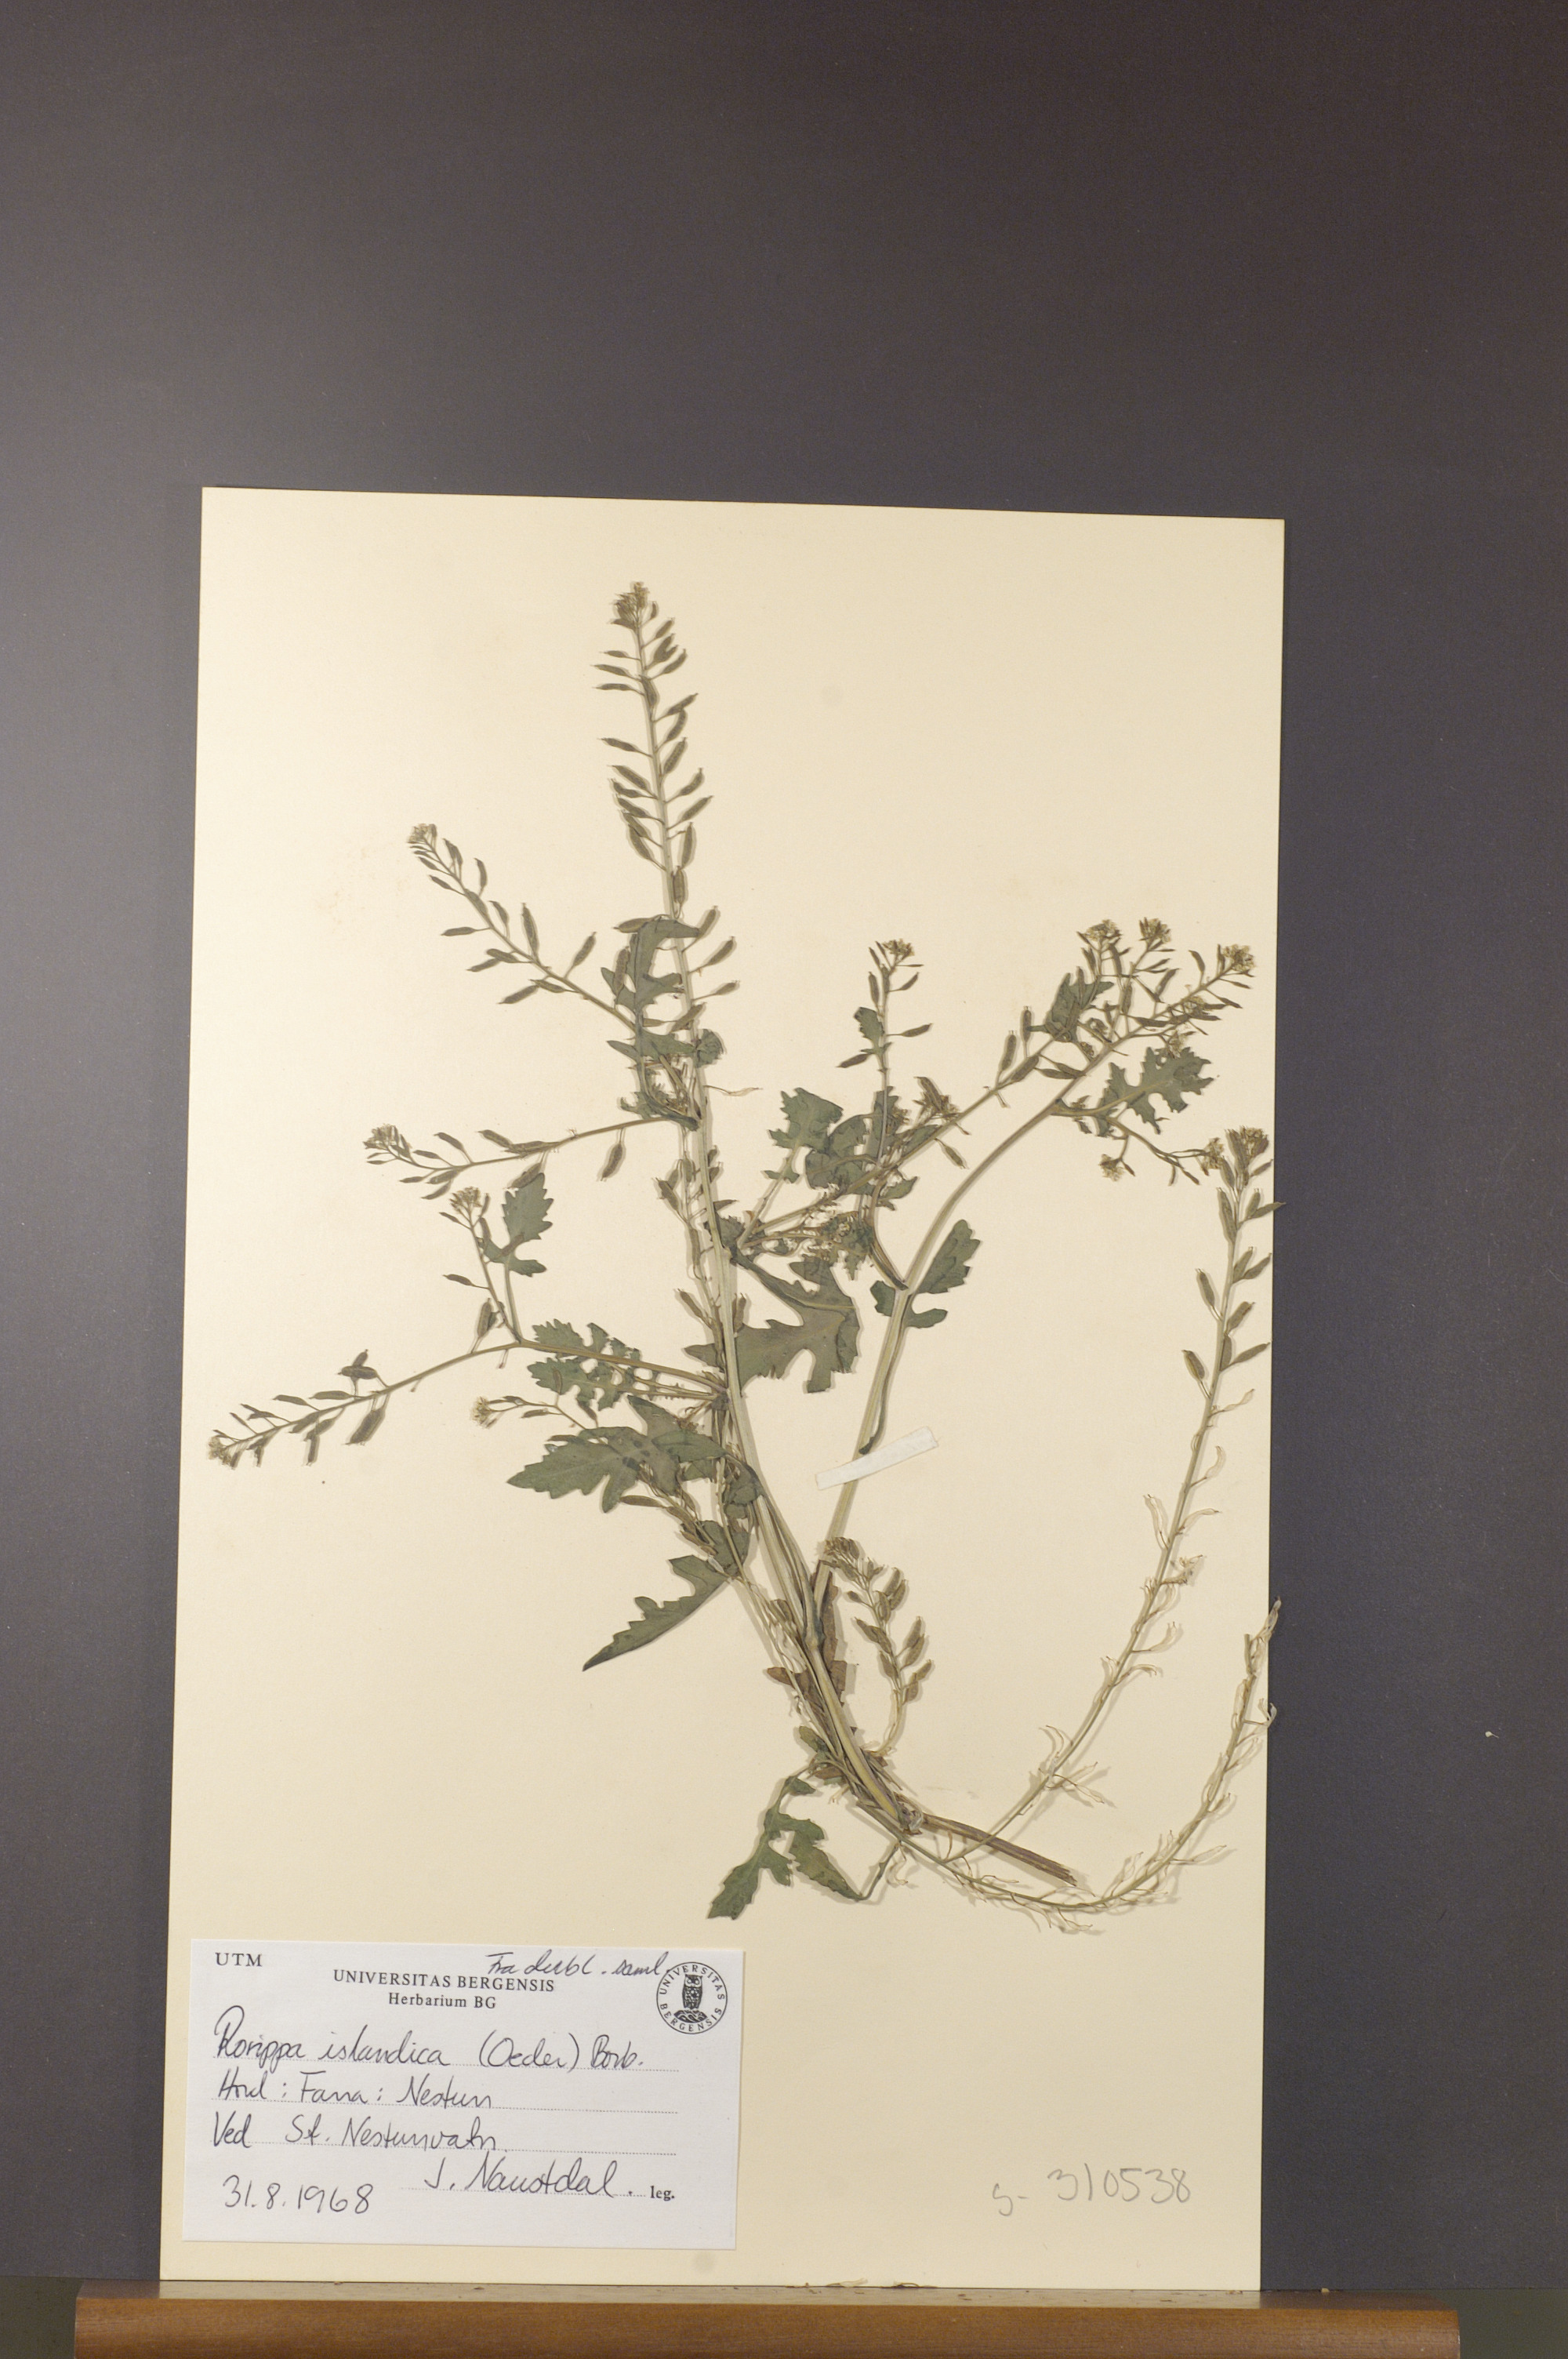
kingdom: Plantae
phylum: Tracheophyta
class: Magnoliopsida
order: Brassicales
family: Brassicaceae
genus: Rorippa
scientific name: Rorippa islandica
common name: Marsh cress
